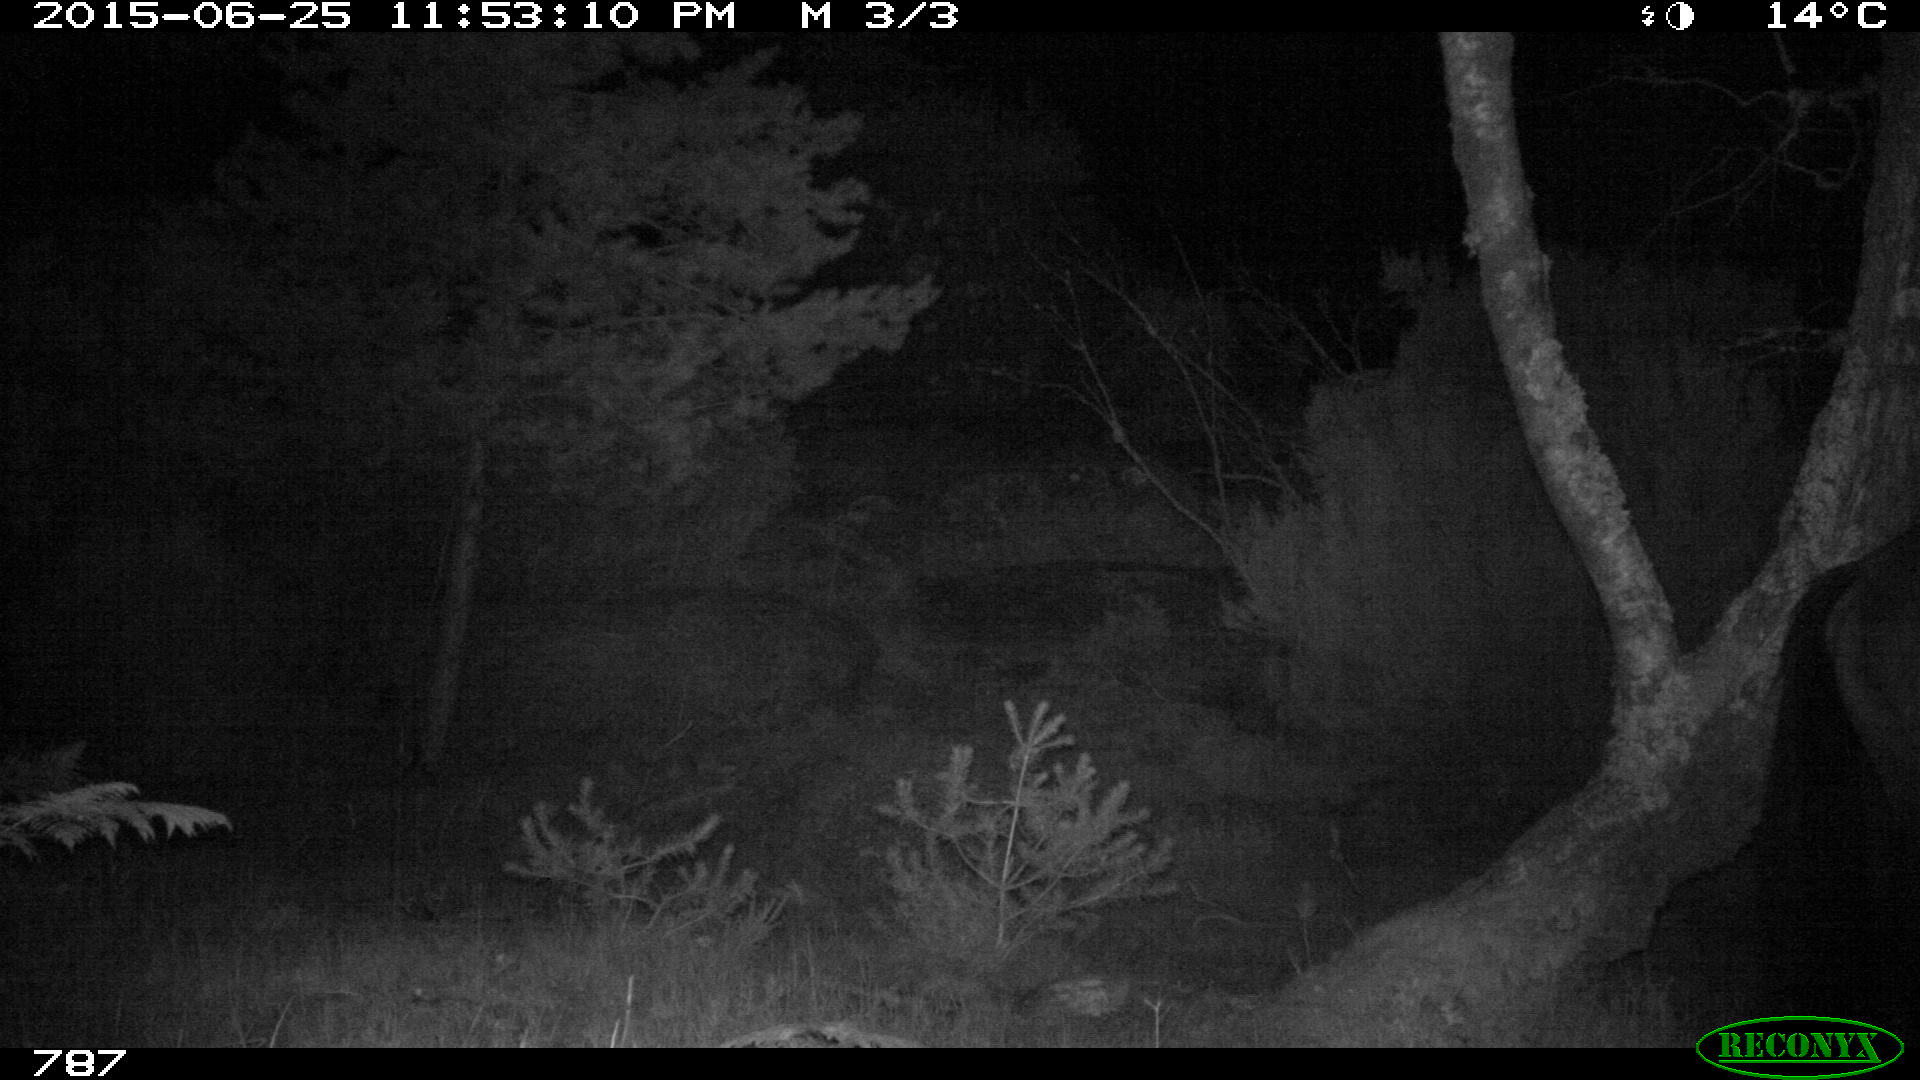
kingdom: Animalia
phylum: Chordata
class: Mammalia
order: Perissodactyla
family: Equidae
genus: Equus
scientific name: Equus caballus
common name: Horse
